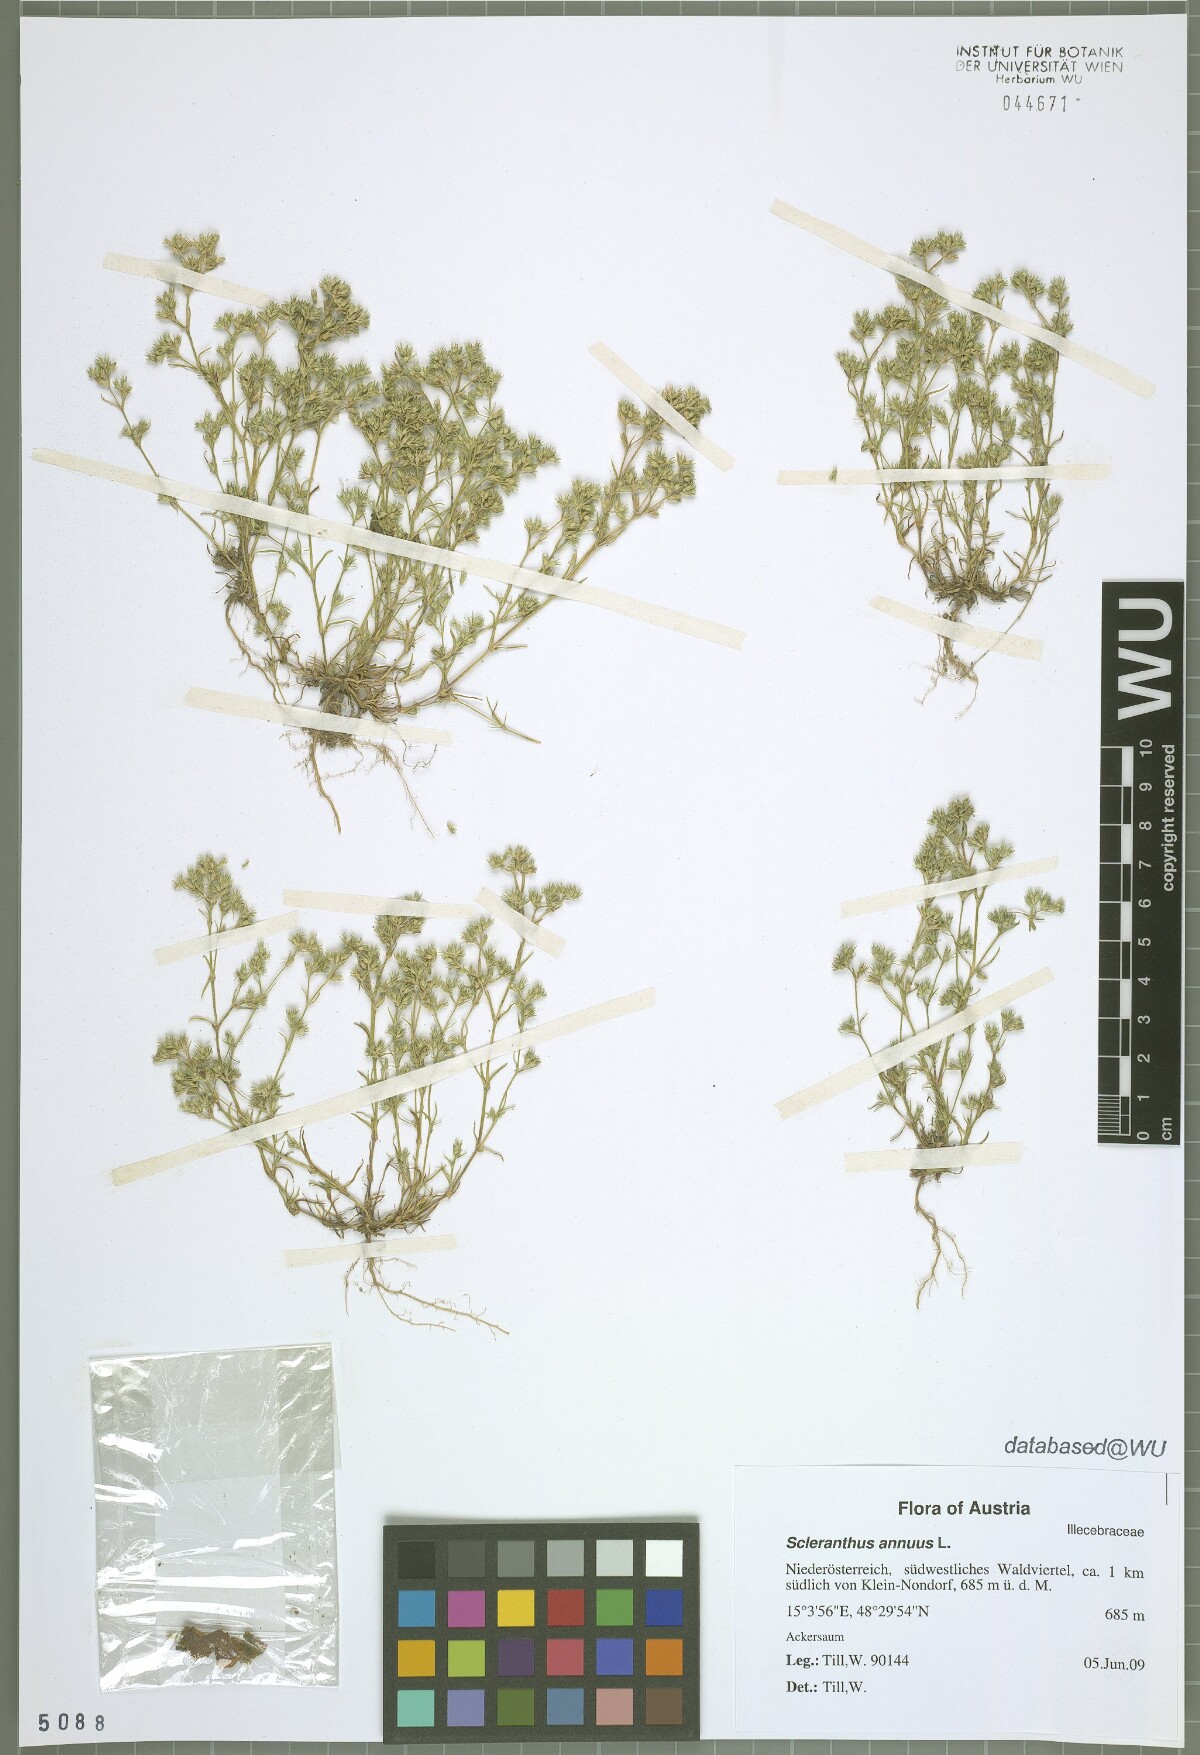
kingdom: Plantae
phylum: Tracheophyta
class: Magnoliopsida
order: Caryophyllales
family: Caryophyllaceae
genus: Scleranthus
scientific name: Scleranthus annuus
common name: Annual knawel
